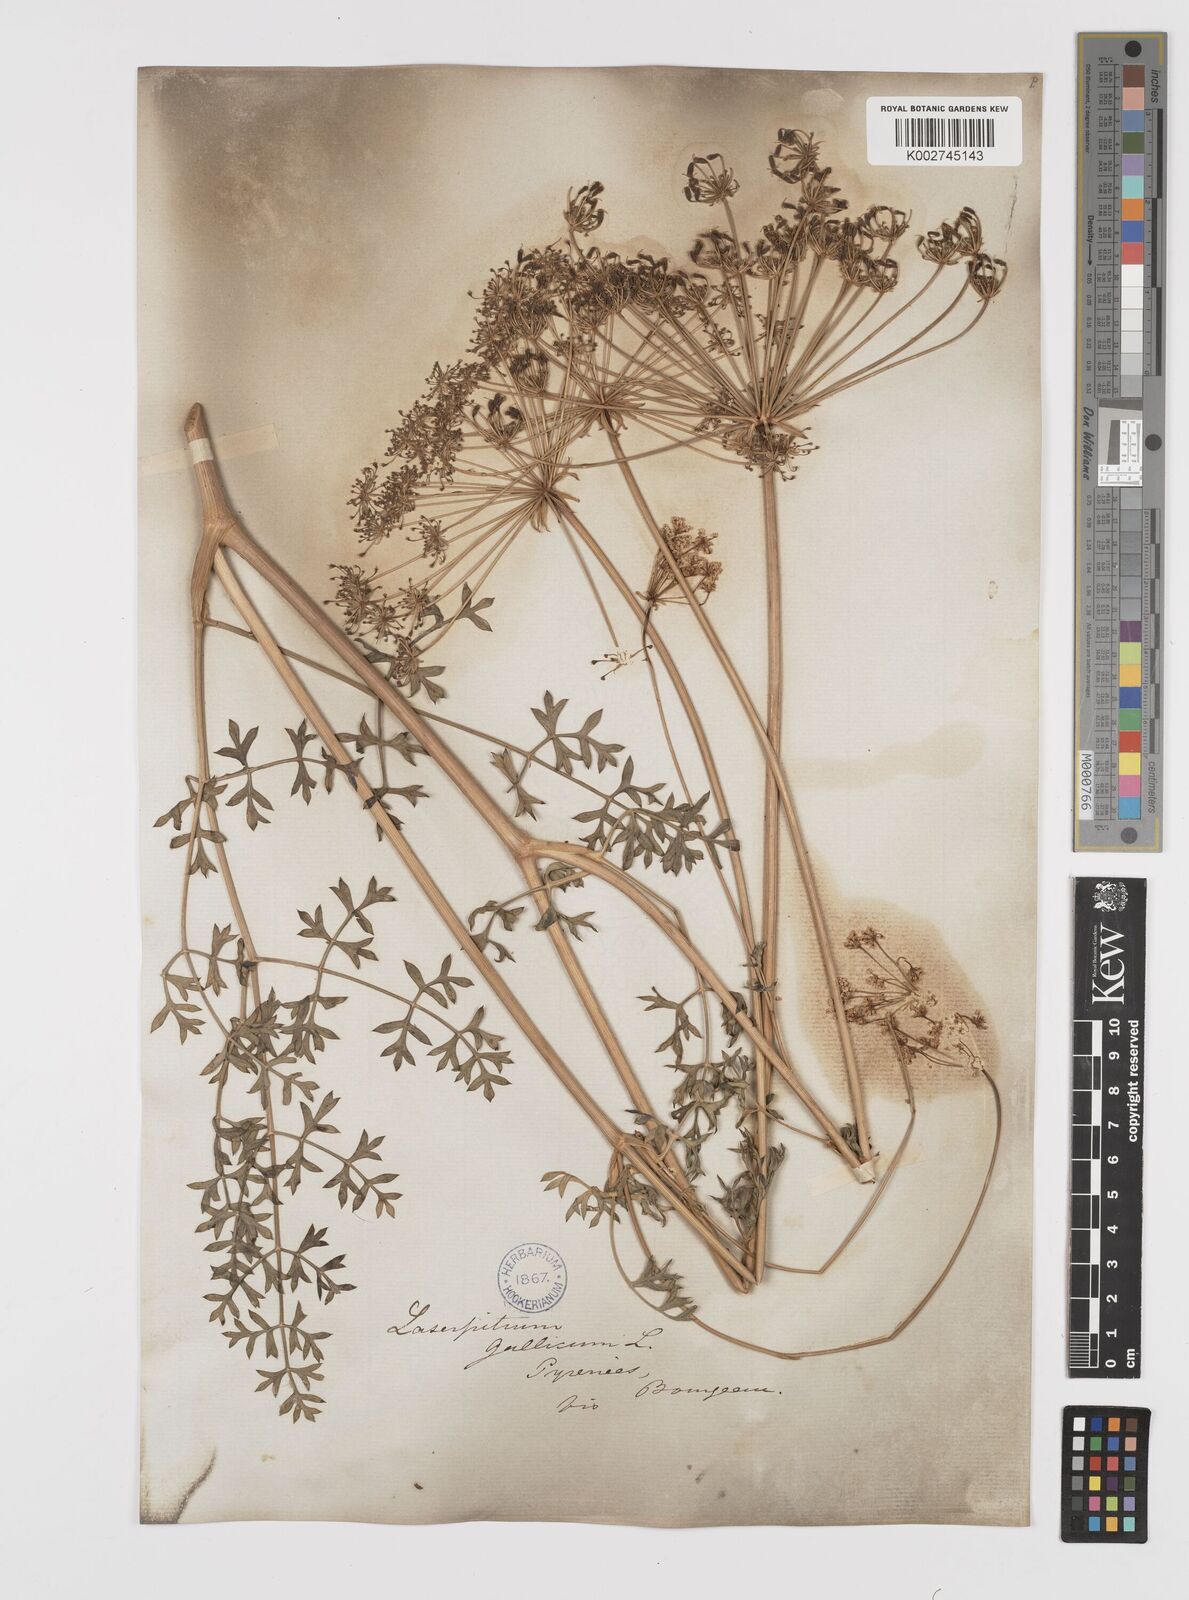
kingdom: Plantae
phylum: Tracheophyta
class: Magnoliopsida
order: Apiales
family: Apiaceae
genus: Laserpitium
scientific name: Laserpitium gallicum
